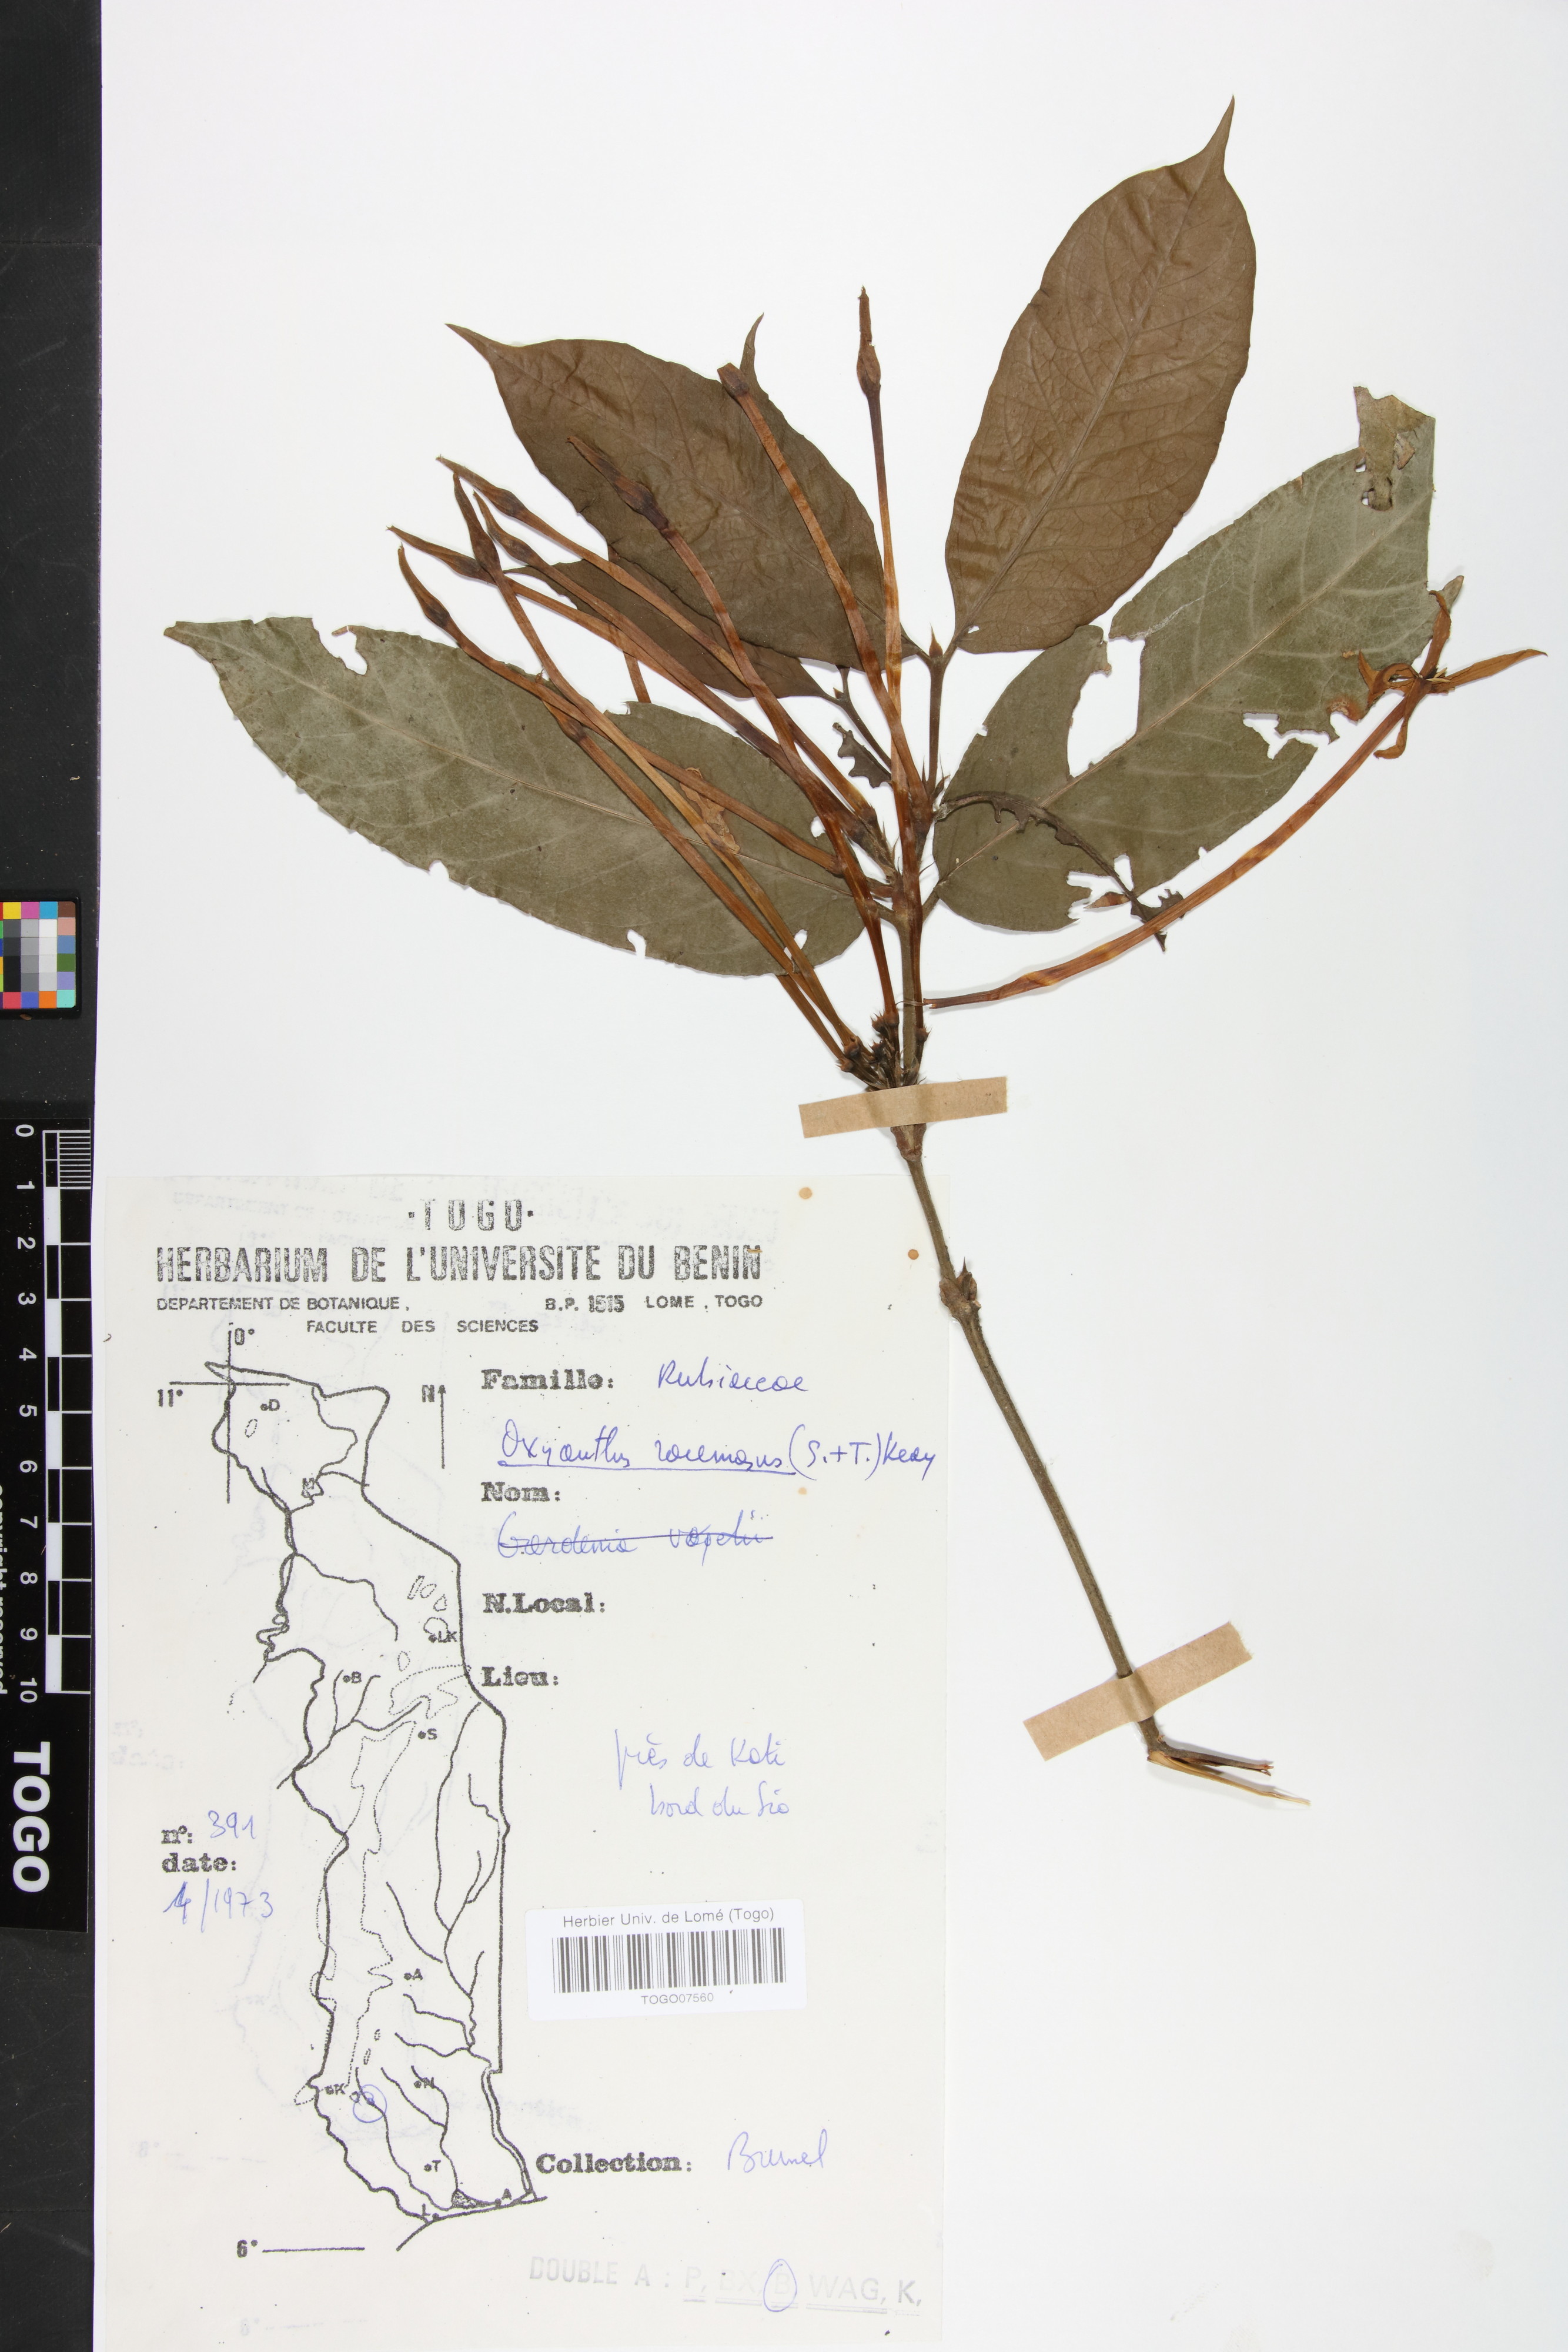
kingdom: Plantae
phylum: Tracheophyta
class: Magnoliopsida
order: Gentianales
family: Rubiaceae
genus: Oxyanthus
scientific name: Oxyanthus racemosus
